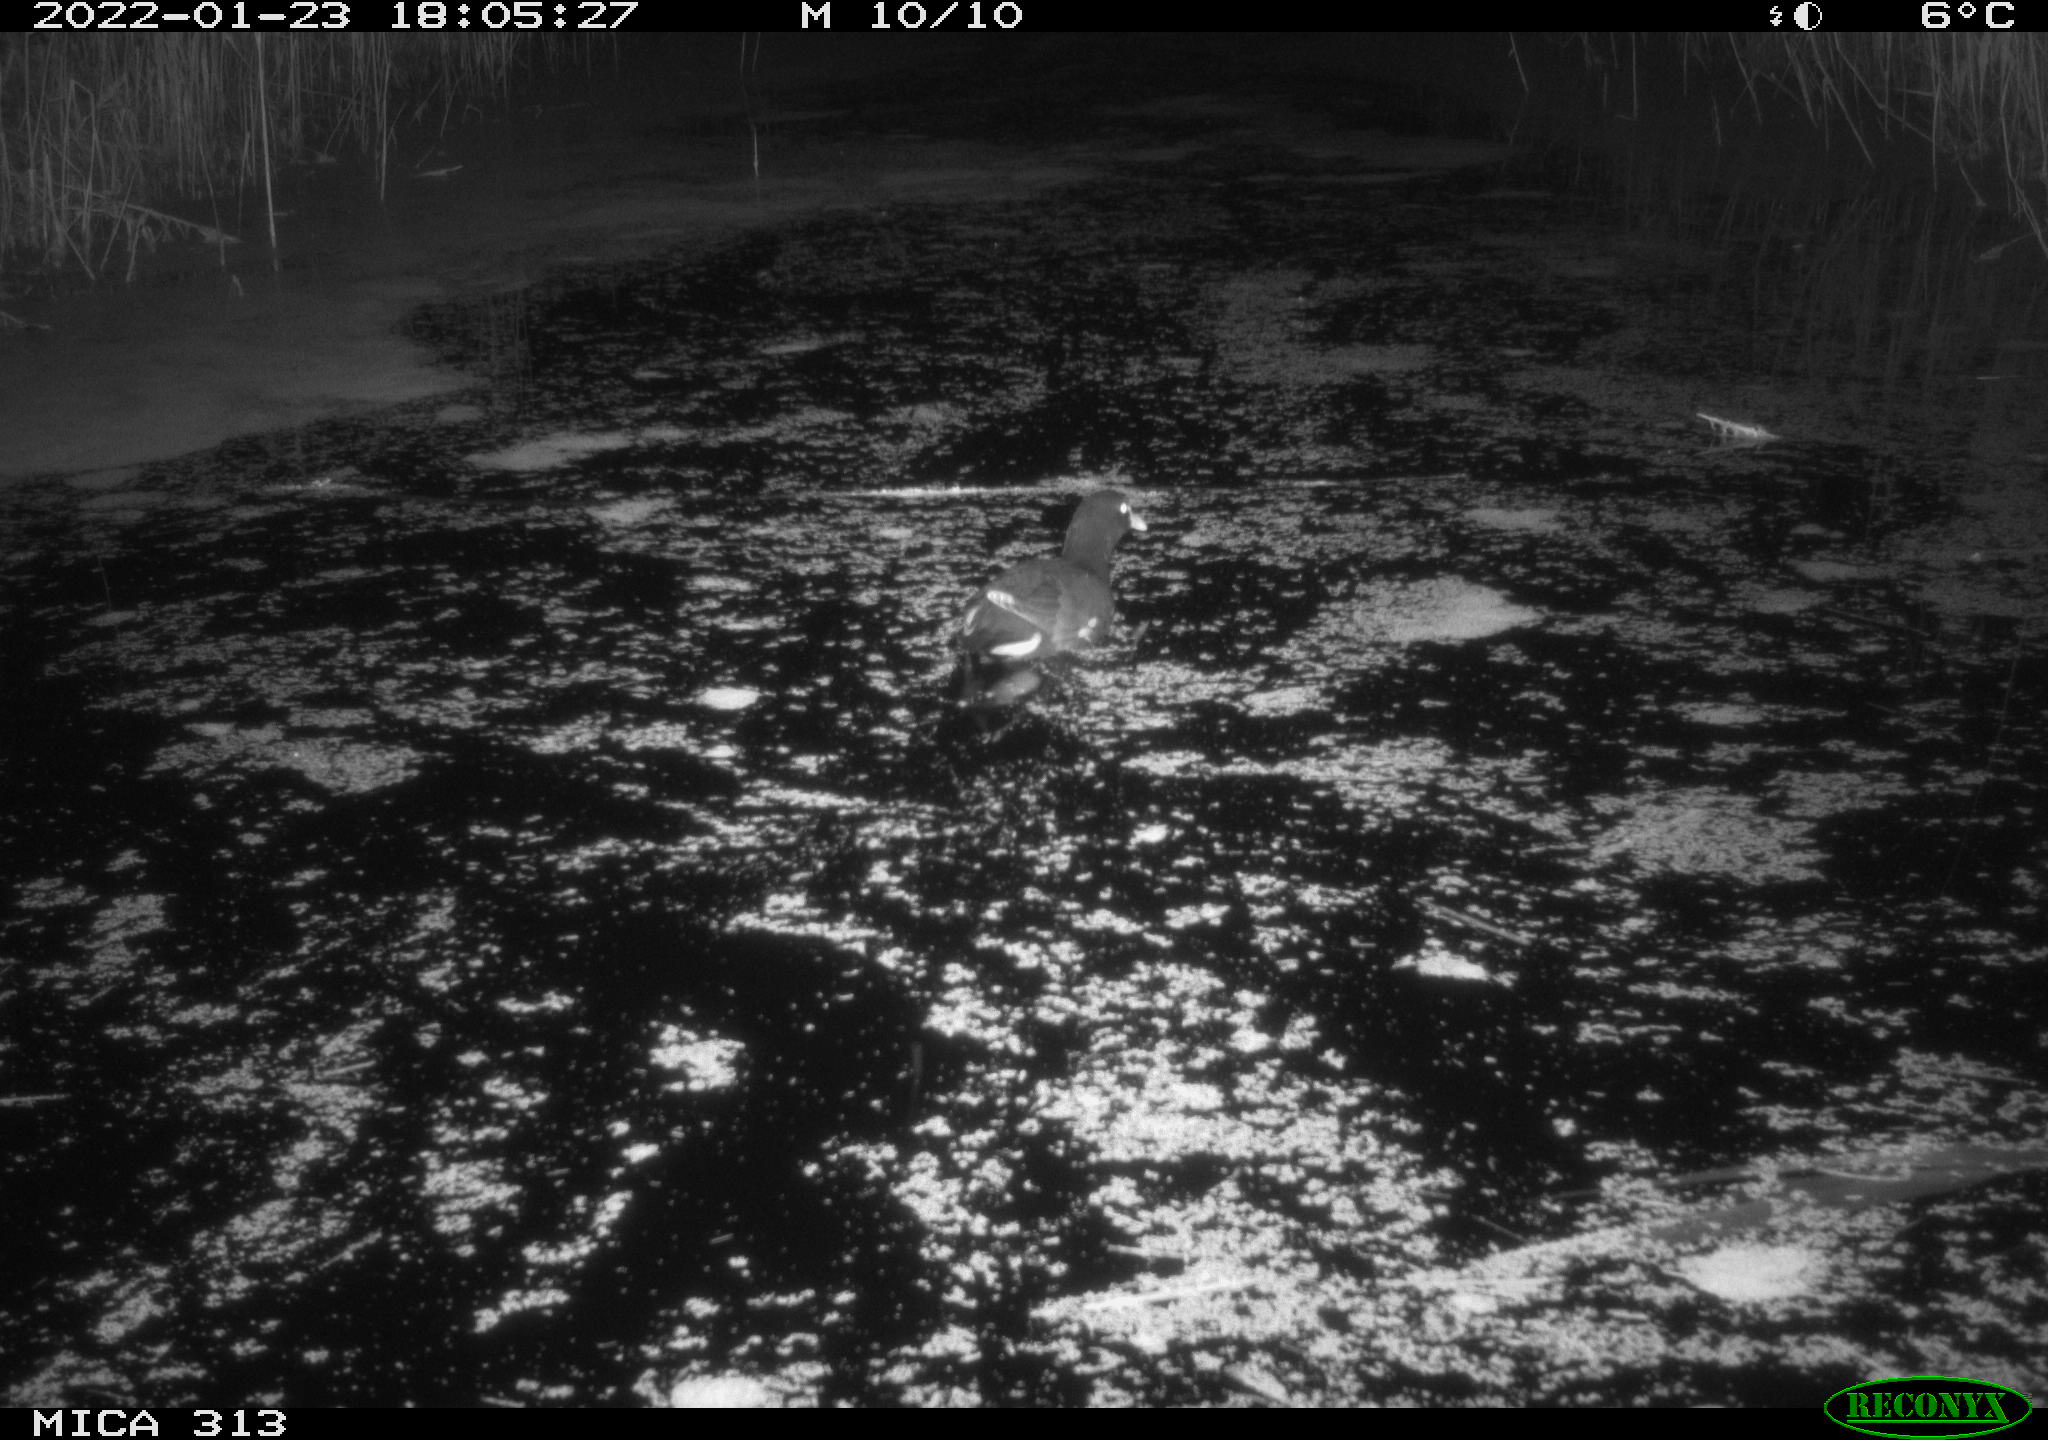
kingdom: Animalia
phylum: Chordata
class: Aves
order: Gruiformes
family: Rallidae
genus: Fulica
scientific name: Fulica atra
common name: Eurasian coot
